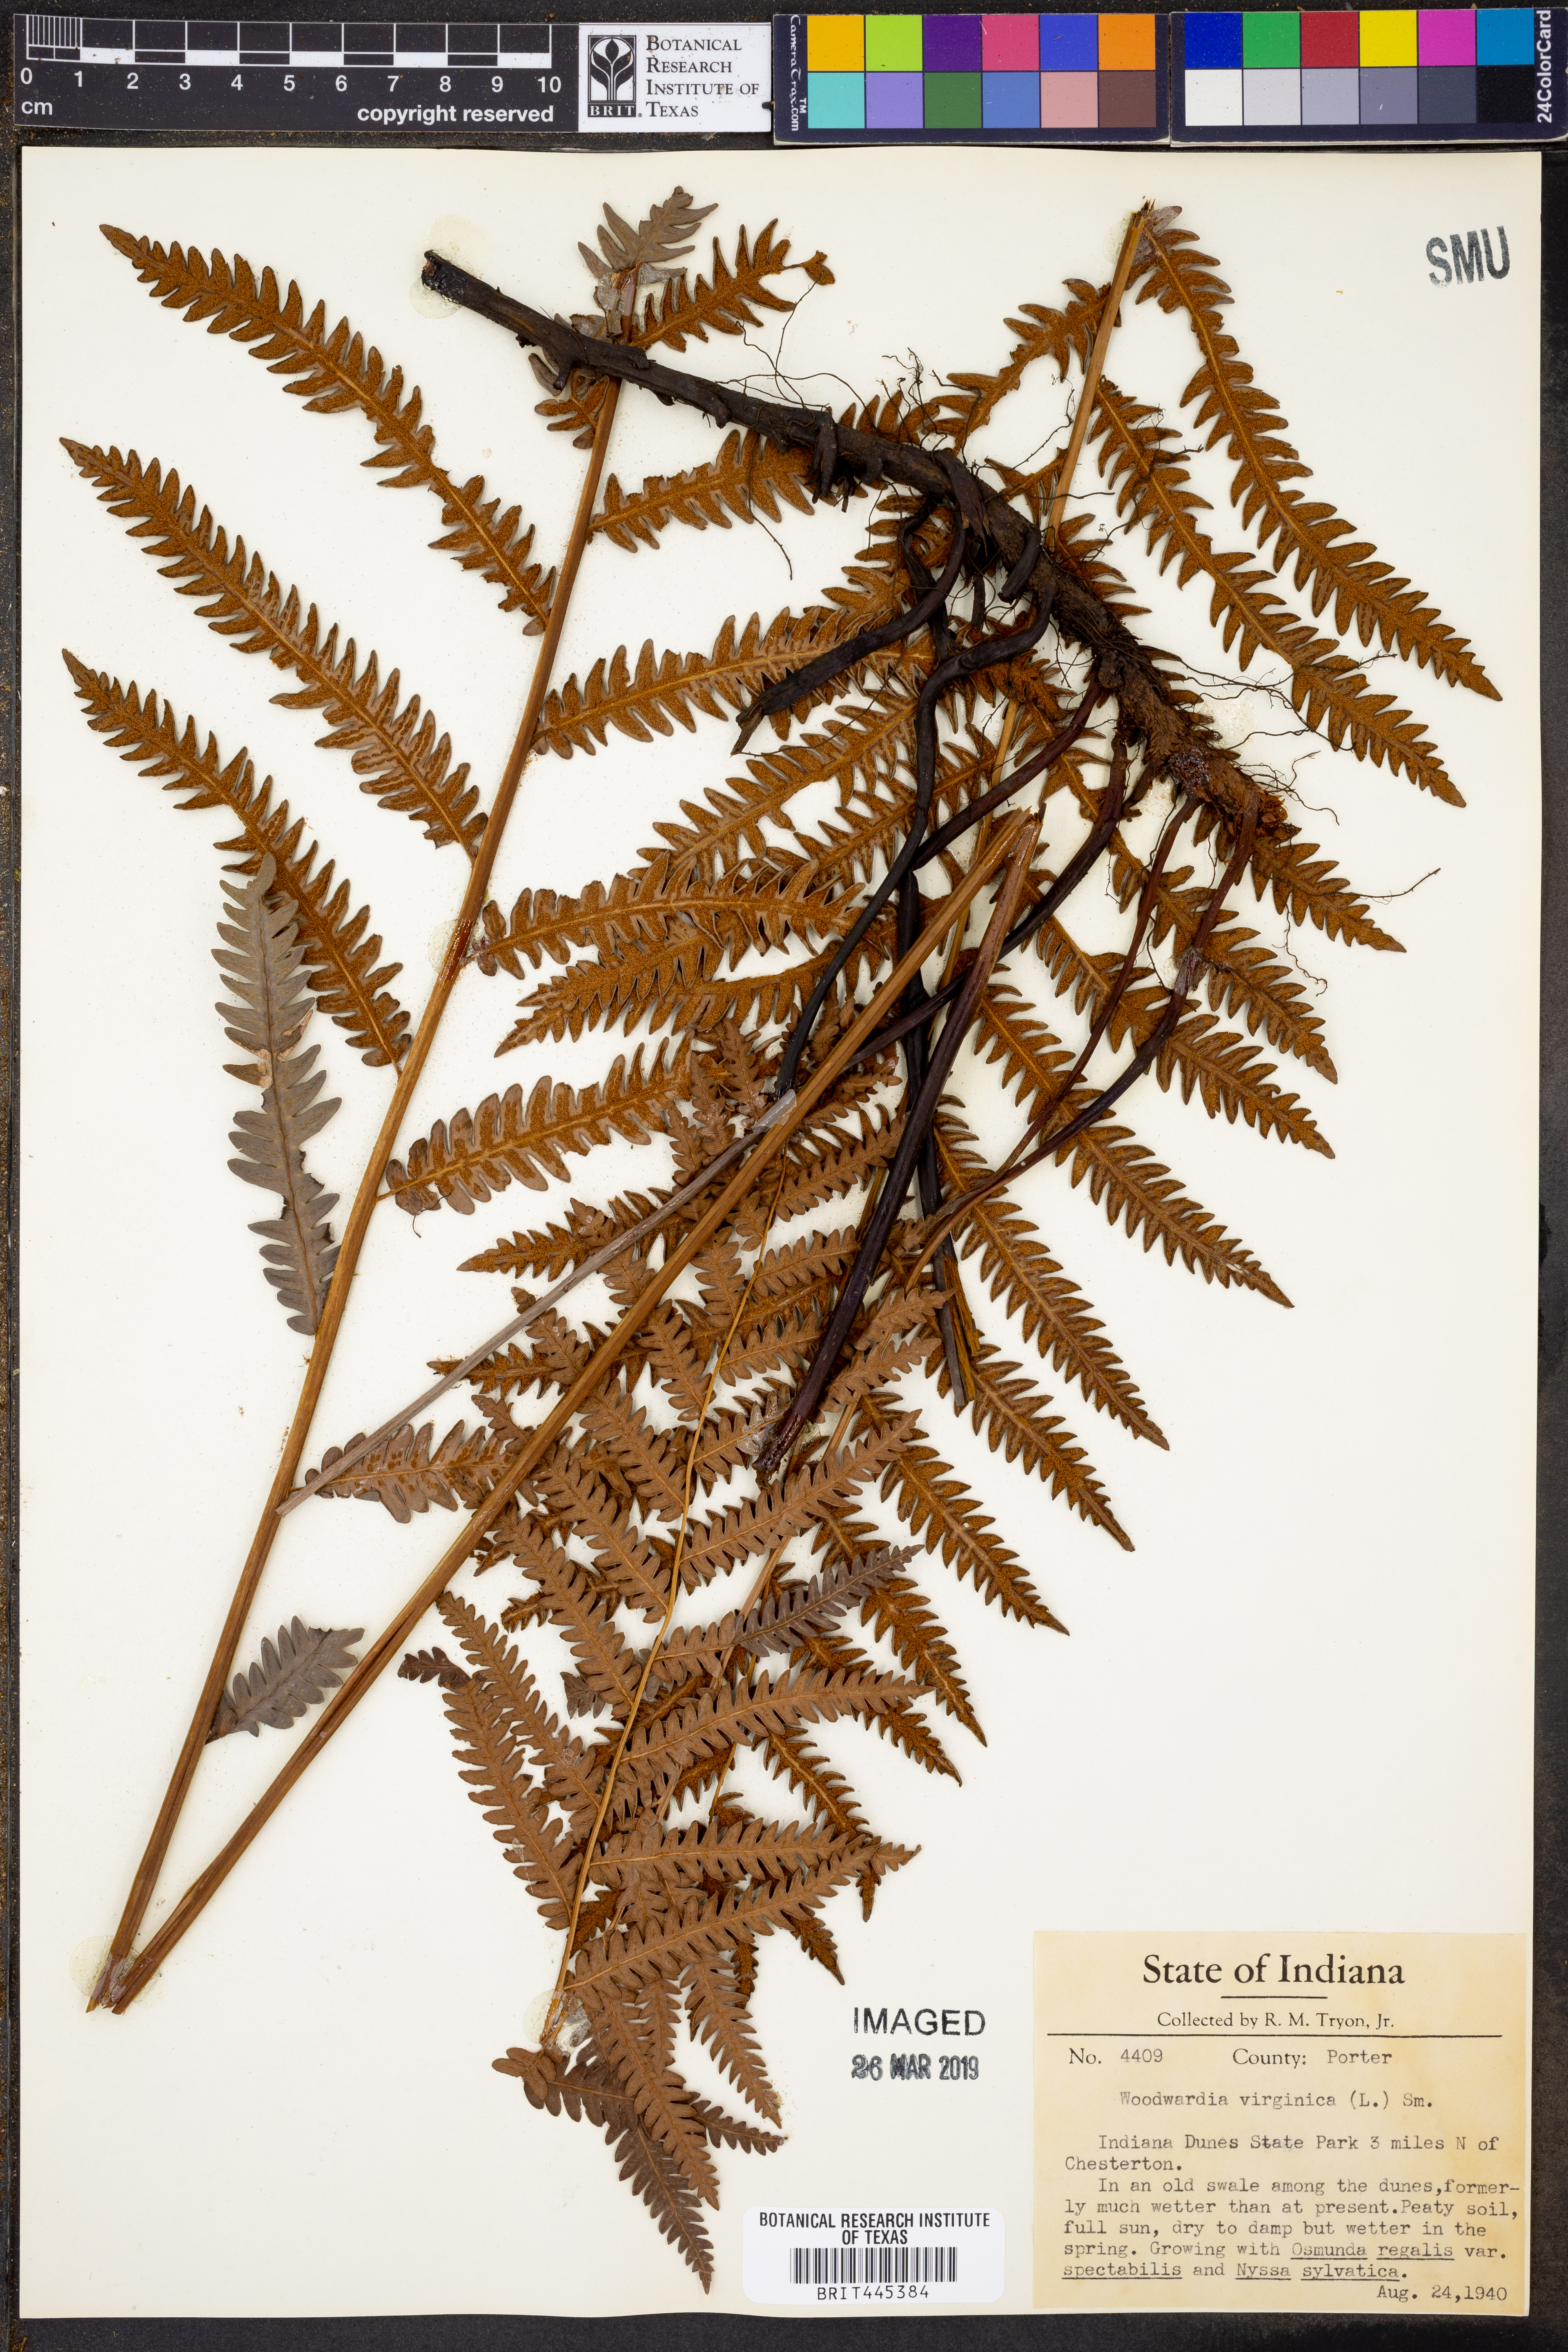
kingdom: Plantae
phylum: Tracheophyta
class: Polypodiopsida
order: Polypodiales
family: Blechnaceae
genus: Anchistea
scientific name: Anchistea virginica
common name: Virginia chain fern
